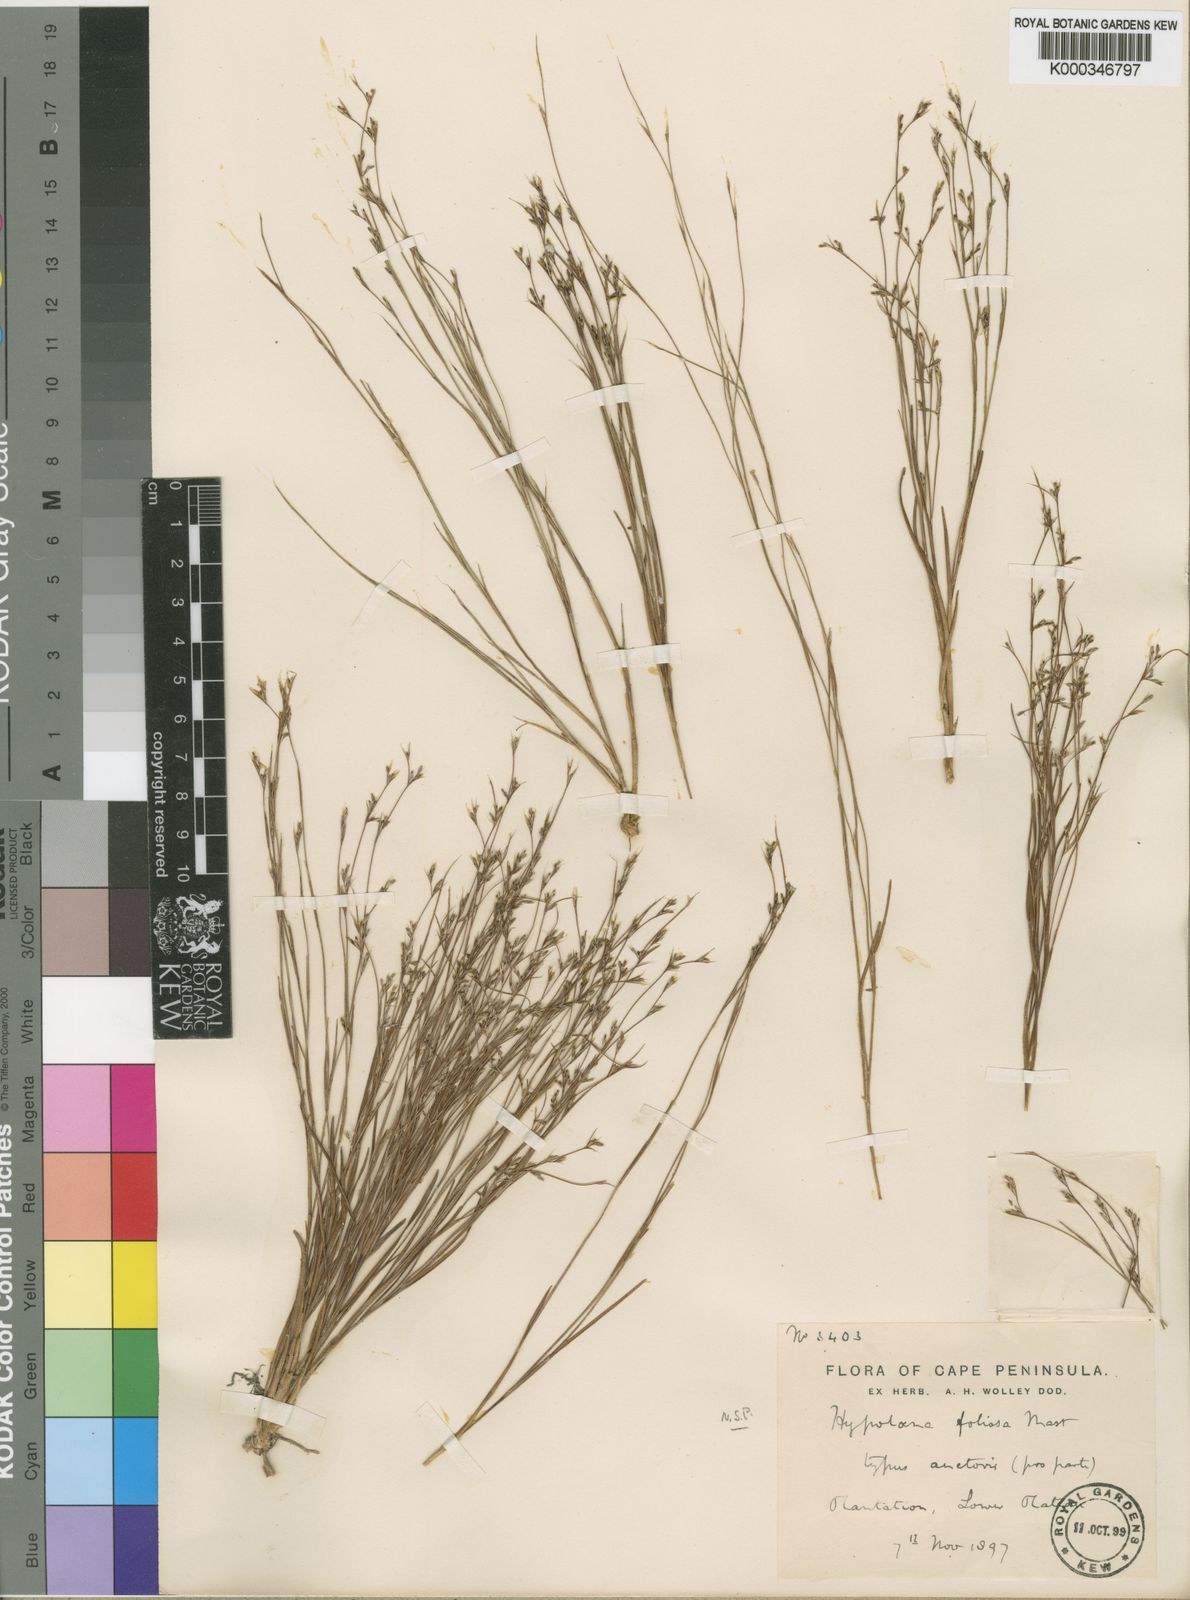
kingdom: Plantae
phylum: Tracheophyta
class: Liliopsida
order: Poales
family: Restionaceae
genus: Anthochortus
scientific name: Anthochortus graminifolius
